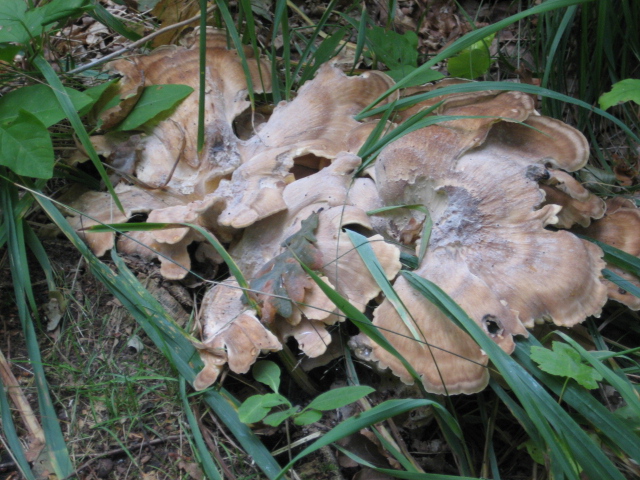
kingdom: Fungi
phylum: Basidiomycota
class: Agaricomycetes
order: Polyporales
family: Meripilaceae
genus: Meripilus
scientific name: Meripilus giganteus
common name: kæmpeporesvamp
